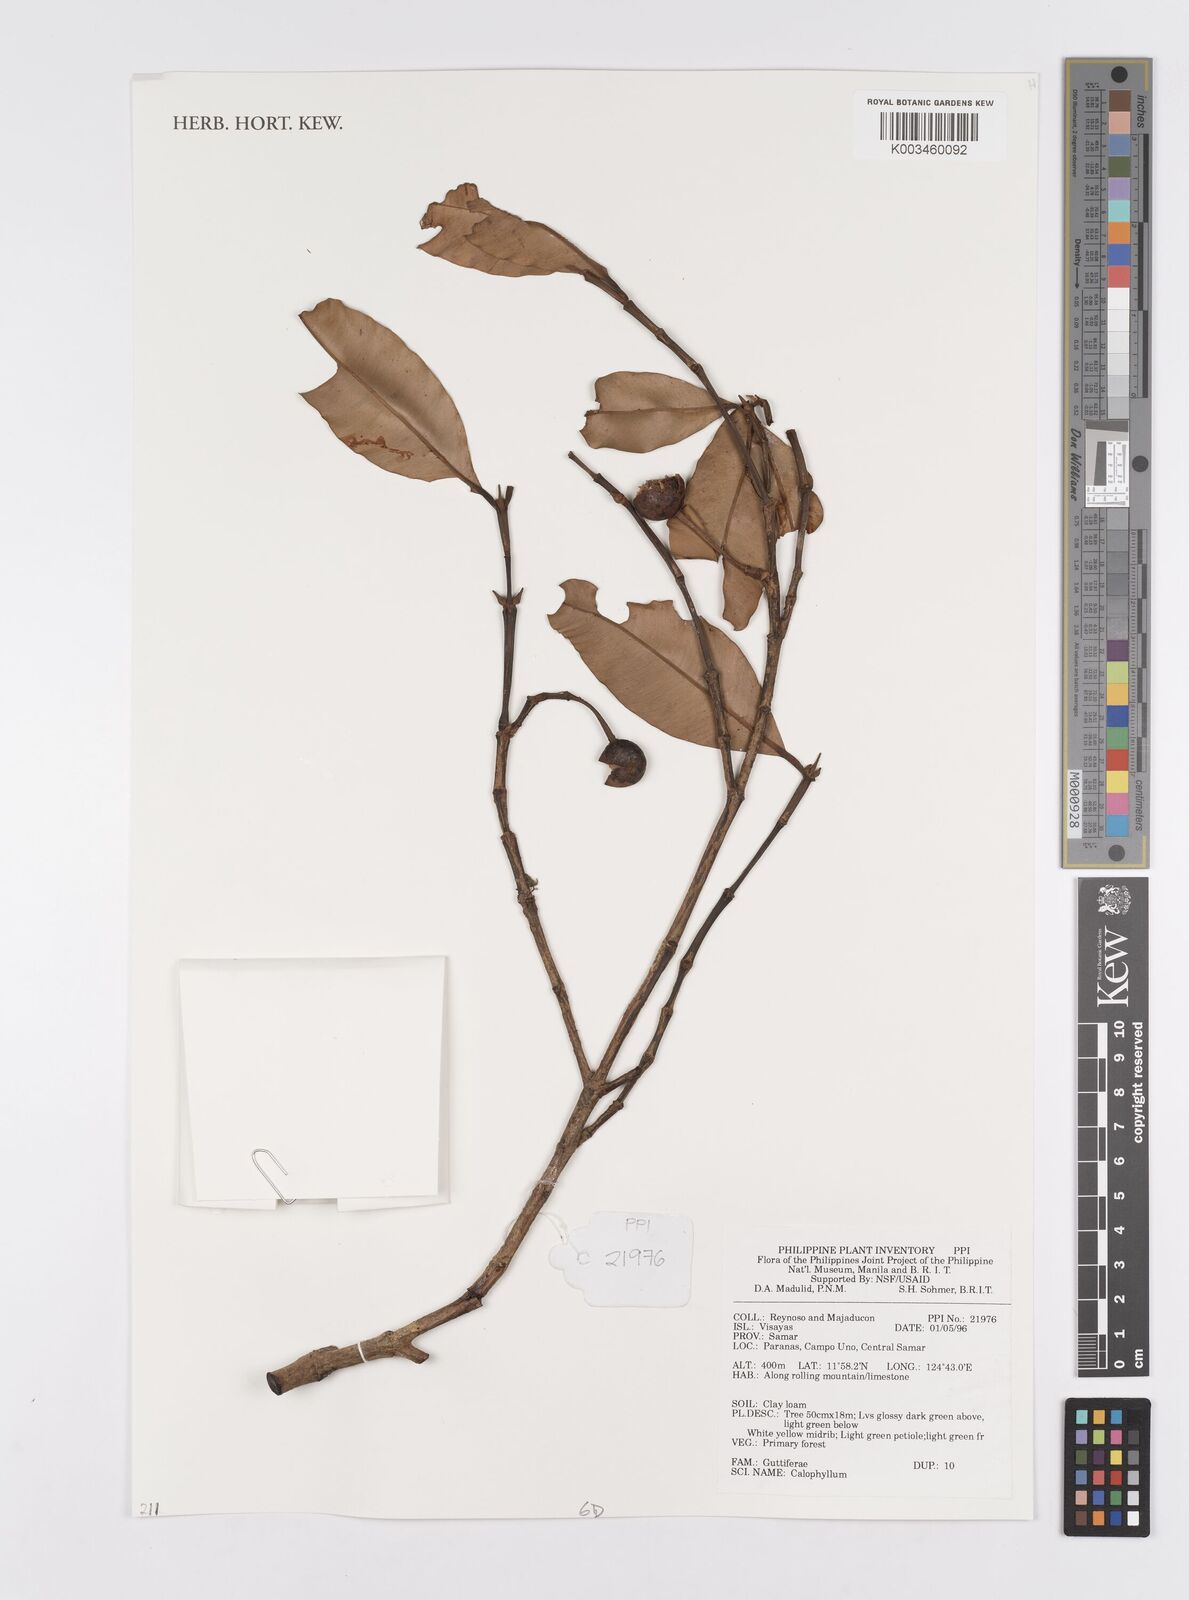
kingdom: Plantae
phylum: Tracheophyta
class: Magnoliopsida
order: Malpighiales
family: Calophyllaceae
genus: Calophyllum
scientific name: Calophyllum
